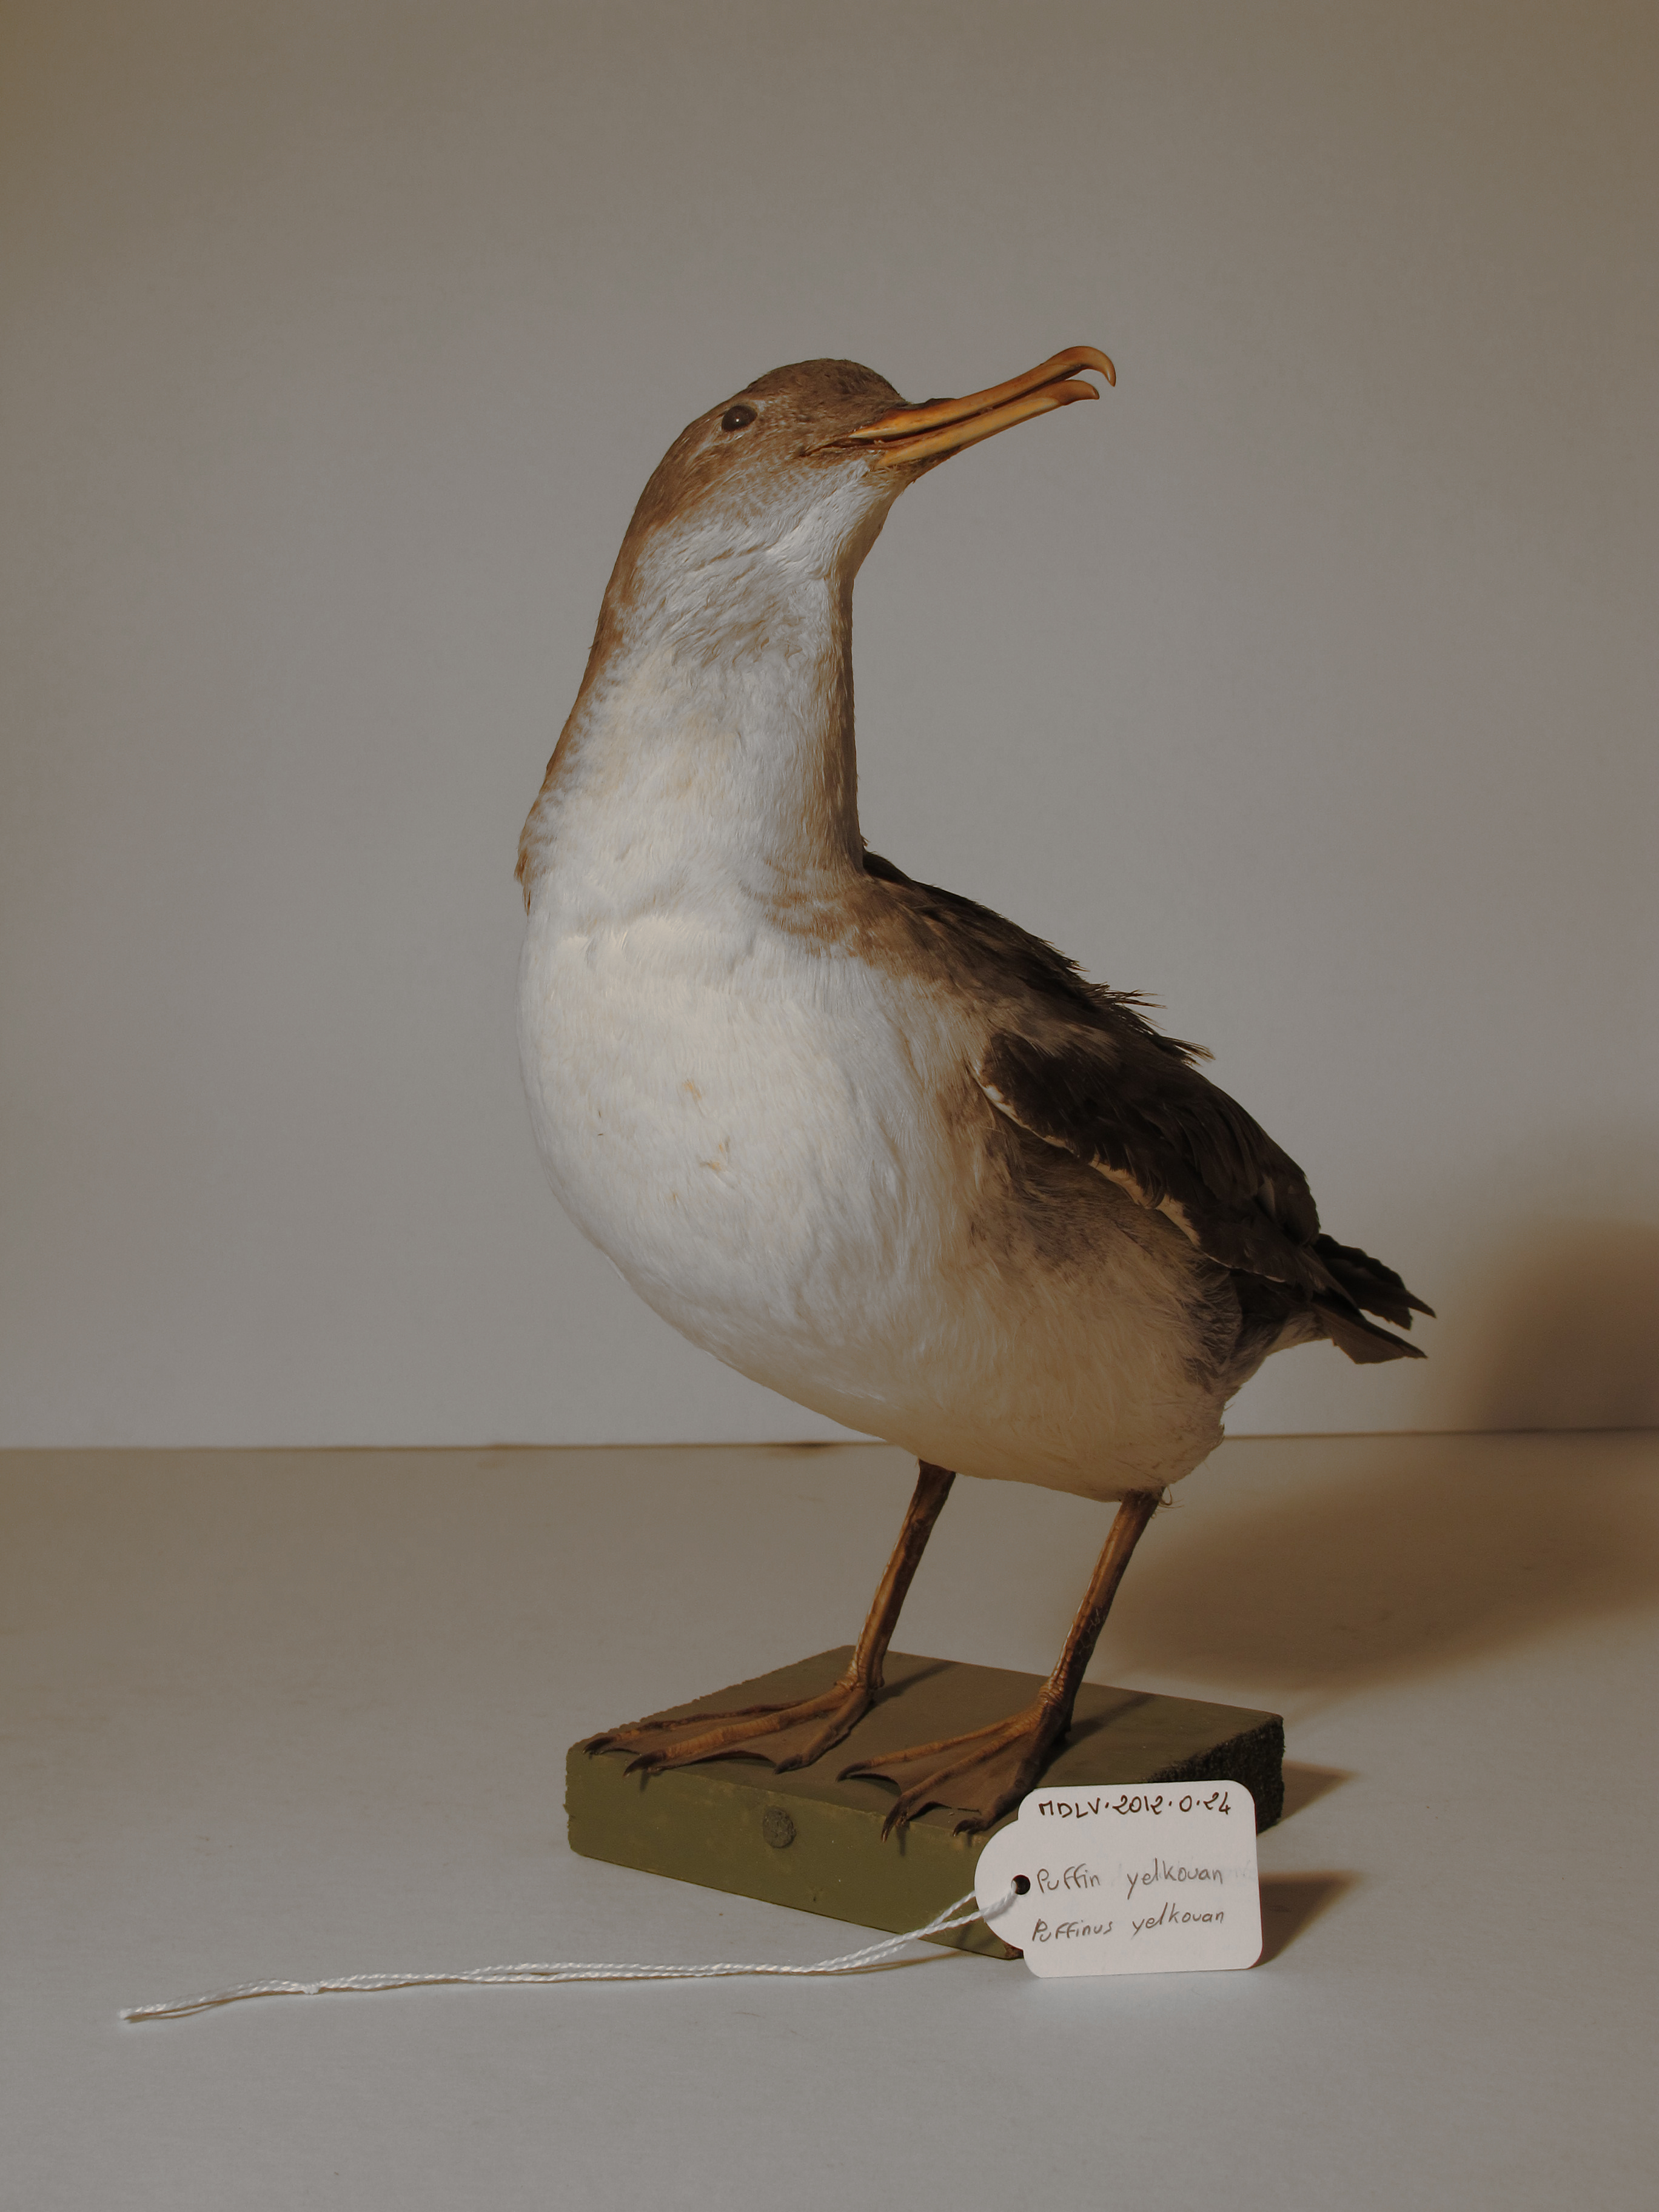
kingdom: Animalia
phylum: Chordata
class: Aves
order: Procellariiformes
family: Procellariidae
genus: Puffinus
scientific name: Puffinus yelkouan
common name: Yelkouan Shearwater
